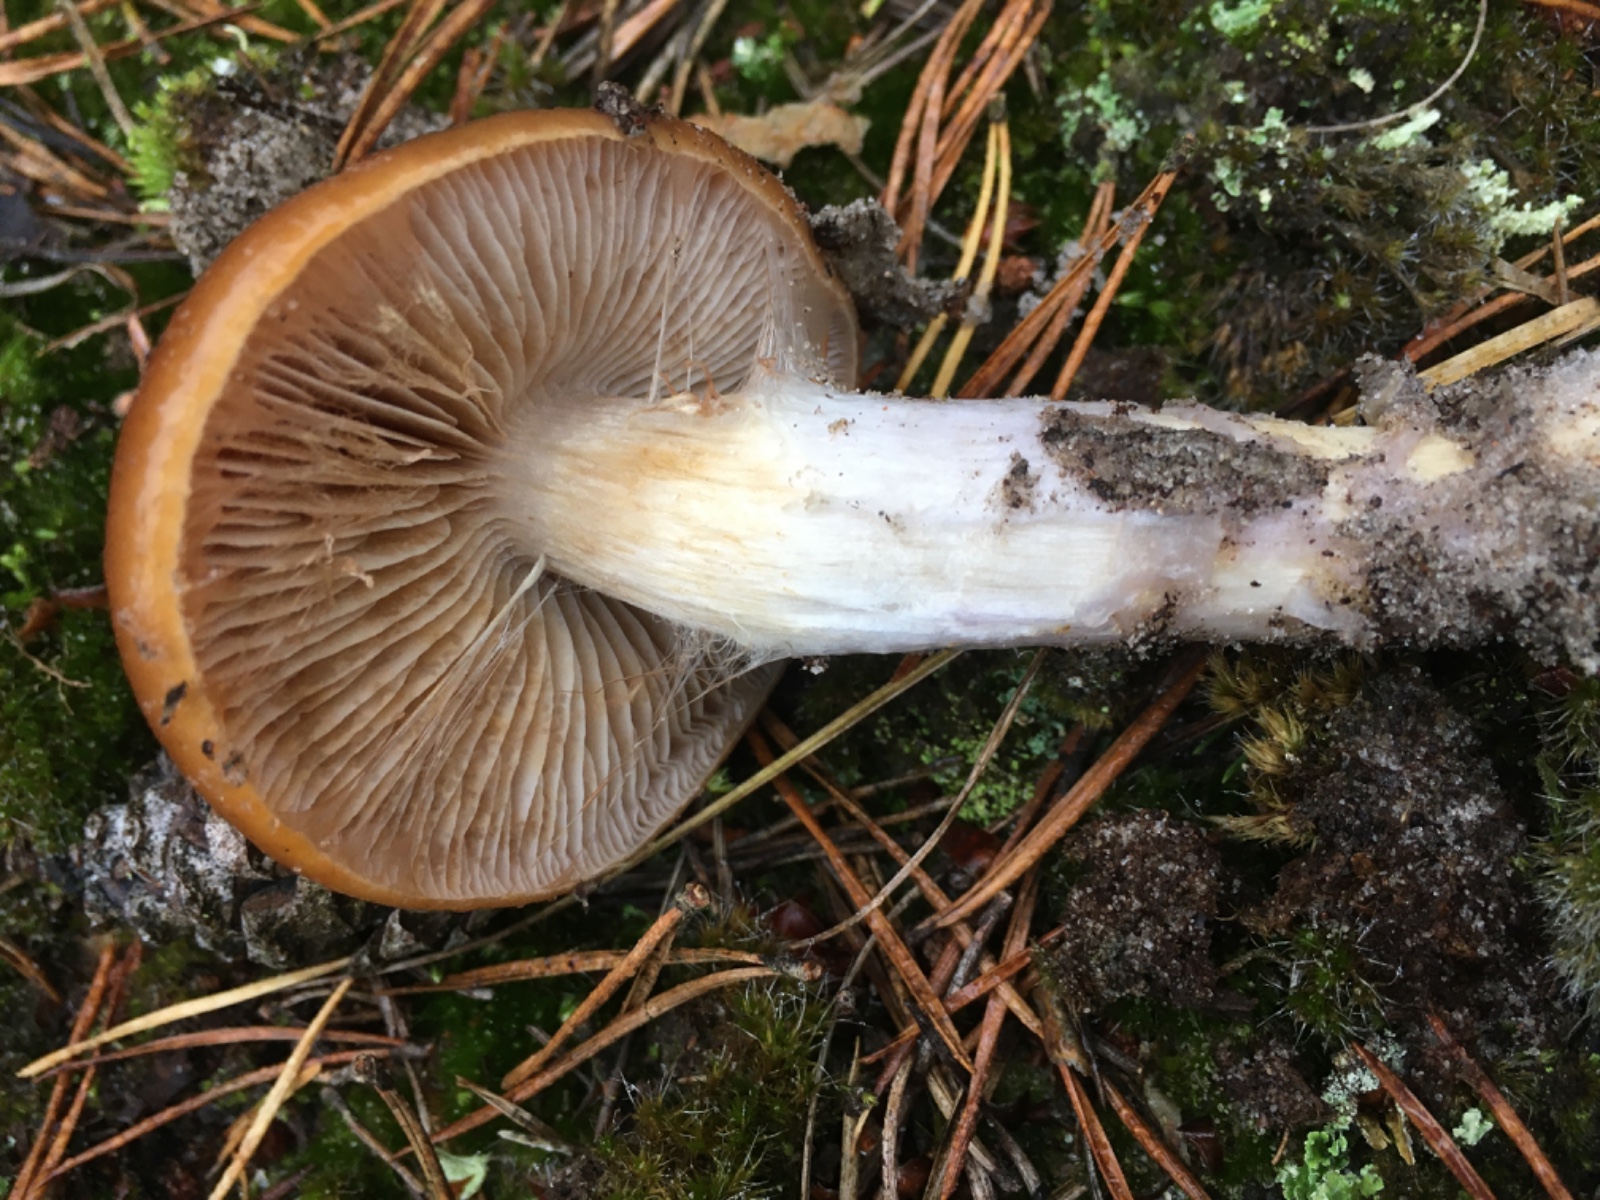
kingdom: Fungi
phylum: Basidiomycota
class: Agaricomycetes
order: Agaricales
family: Cortinariaceae
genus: Cortinarius
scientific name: Cortinarius mucosus
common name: kastaniebrun slørhat
